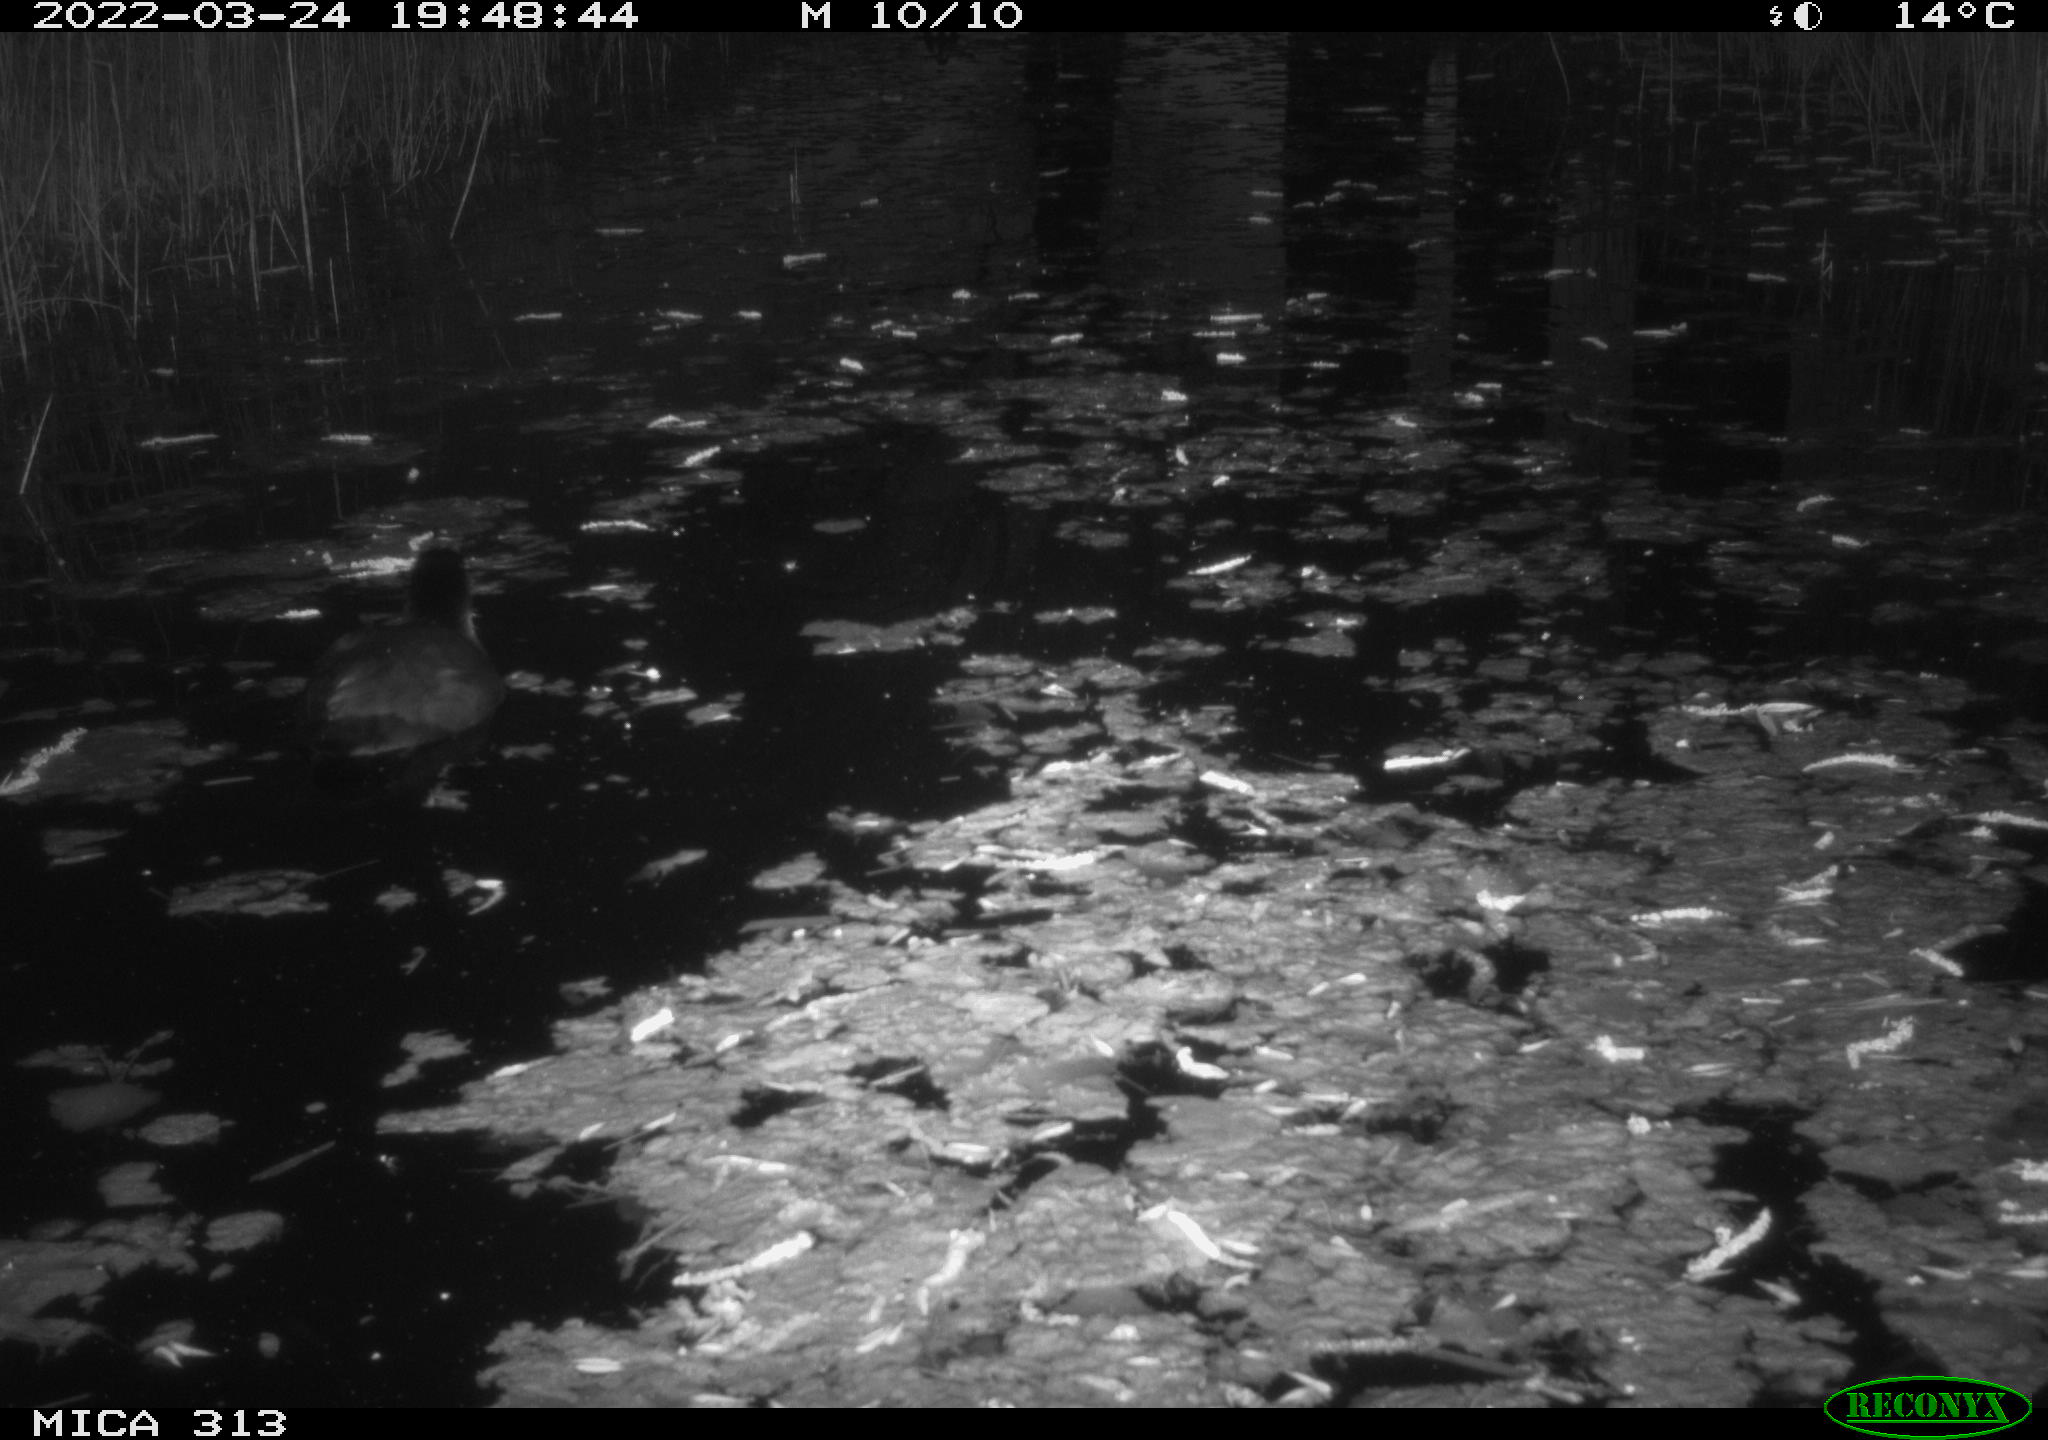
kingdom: Animalia
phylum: Chordata
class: Aves
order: Gruiformes
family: Rallidae
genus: Fulica
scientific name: Fulica atra
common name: Eurasian coot
